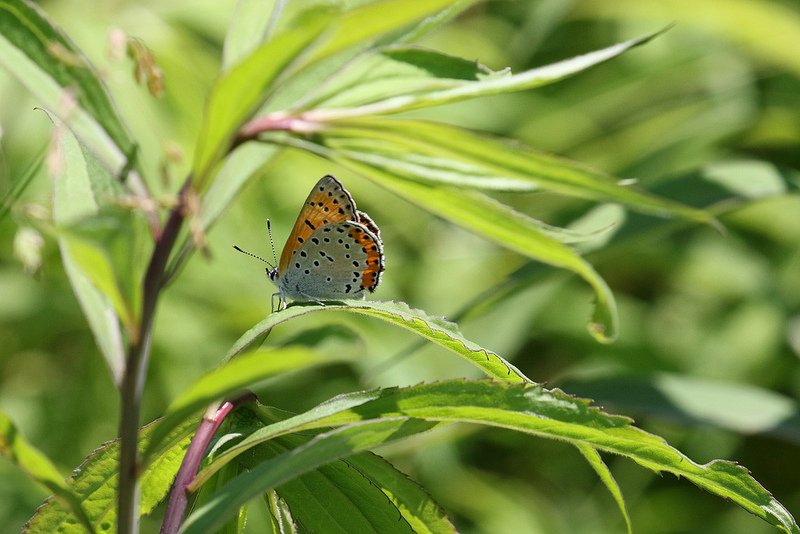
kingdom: Animalia
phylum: Arthropoda
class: Insecta
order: Lepidoptera
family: Sesiidae
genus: Sesia
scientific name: Sesia Lycaena hyllus
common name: Bronze Copper
